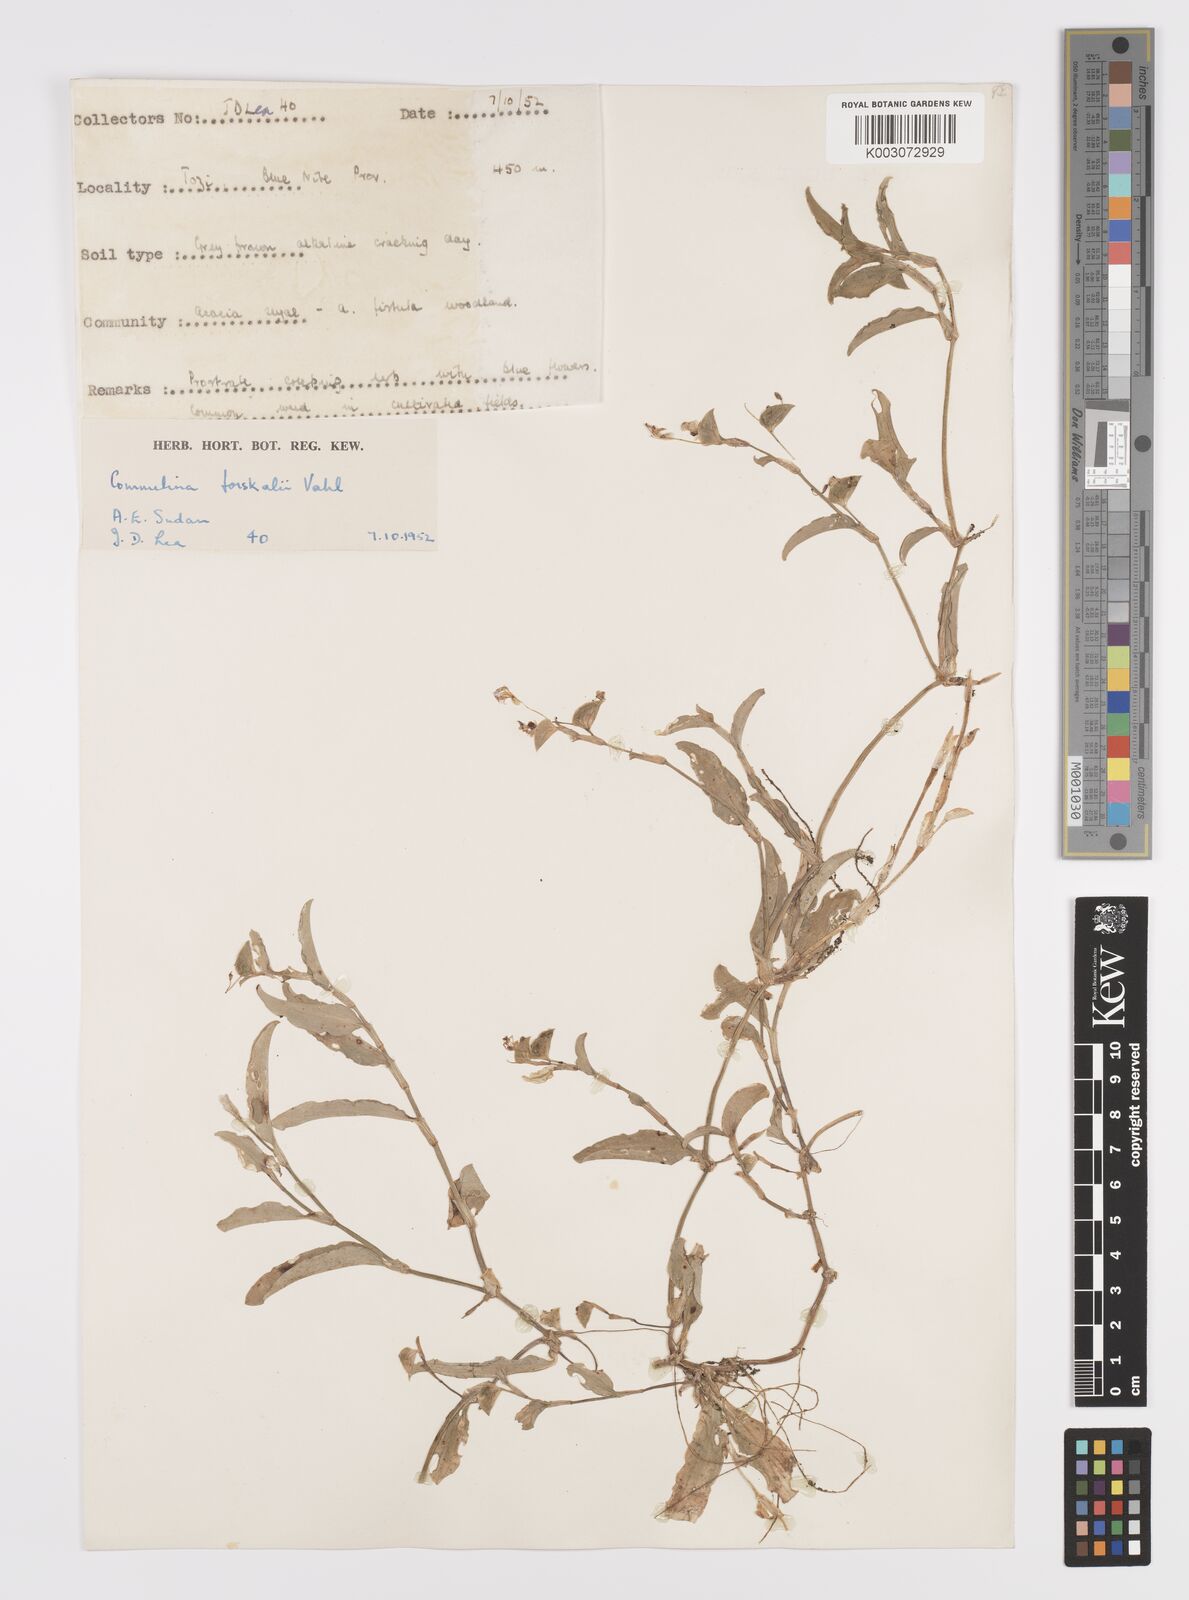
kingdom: Plantae
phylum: Tracheophyta
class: Liliopsida
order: Commelinales
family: Commelinaceae
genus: Commelina
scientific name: Commelina forskaolii
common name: Rat's ear
